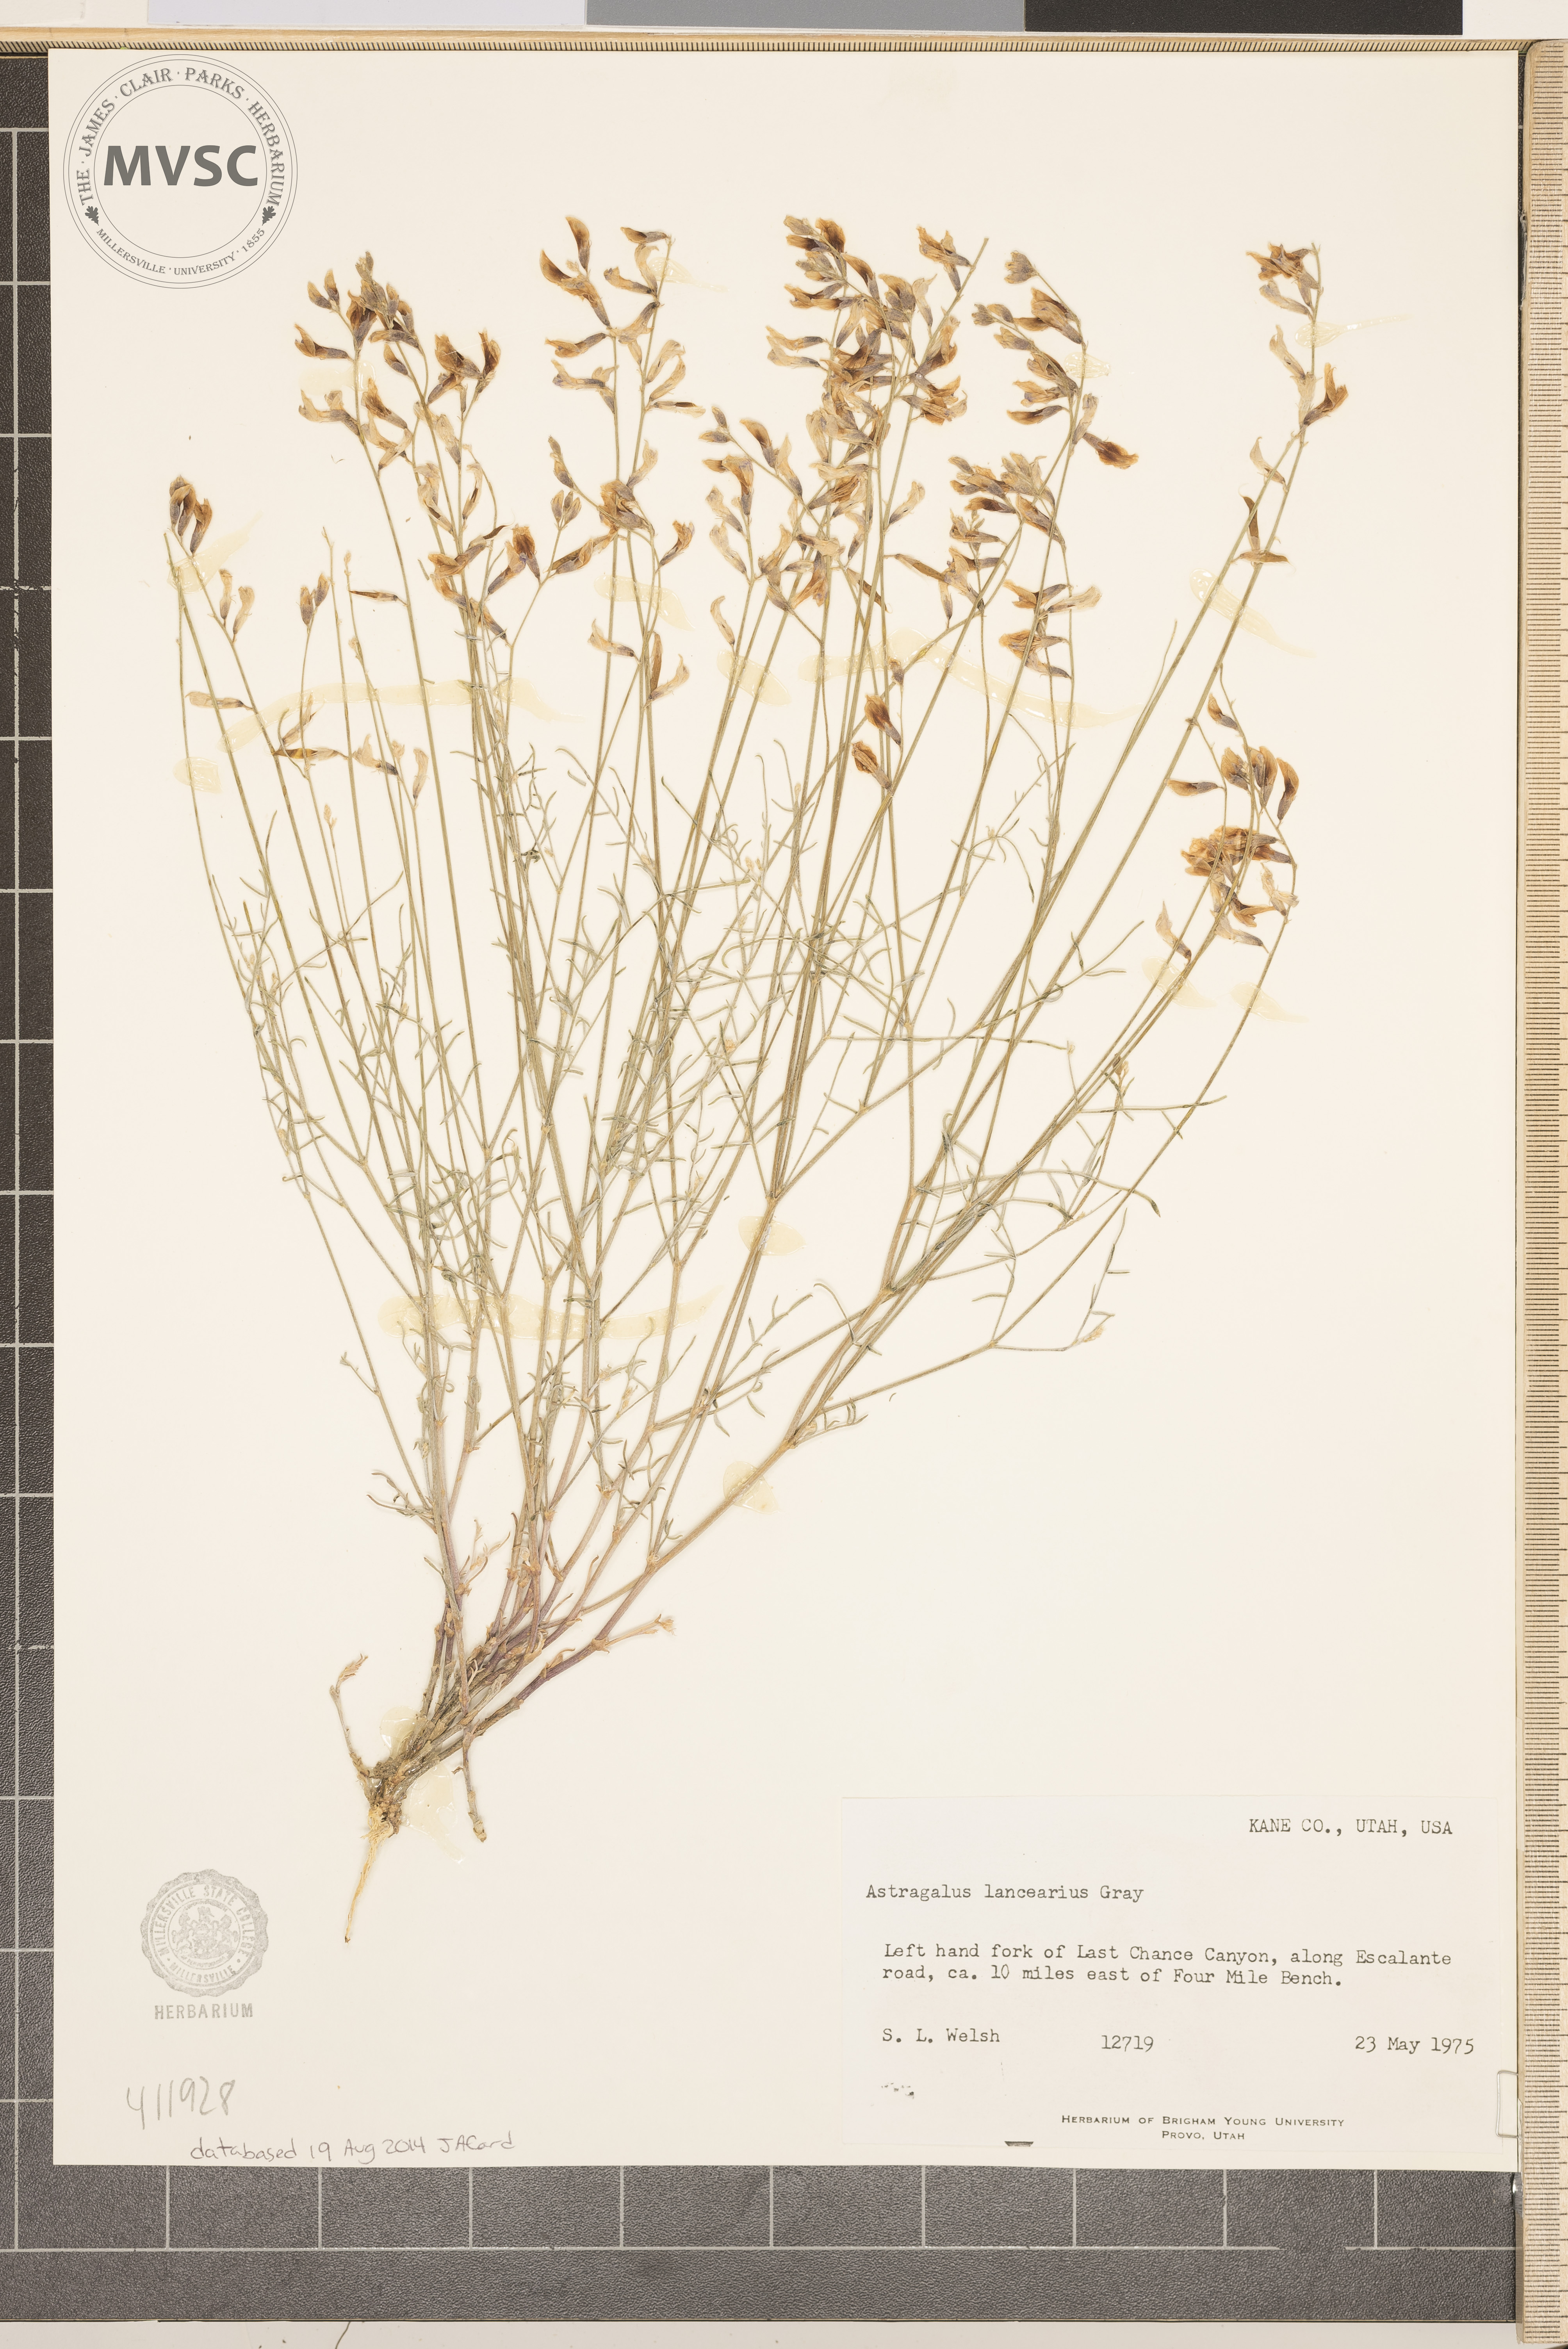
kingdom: Plantae
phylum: Tracheophyta
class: Magnoliopsida
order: Fabales
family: Fabaceae
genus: Astragalus
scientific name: Astragalus episcopus
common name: Bishop's milk-vetch
